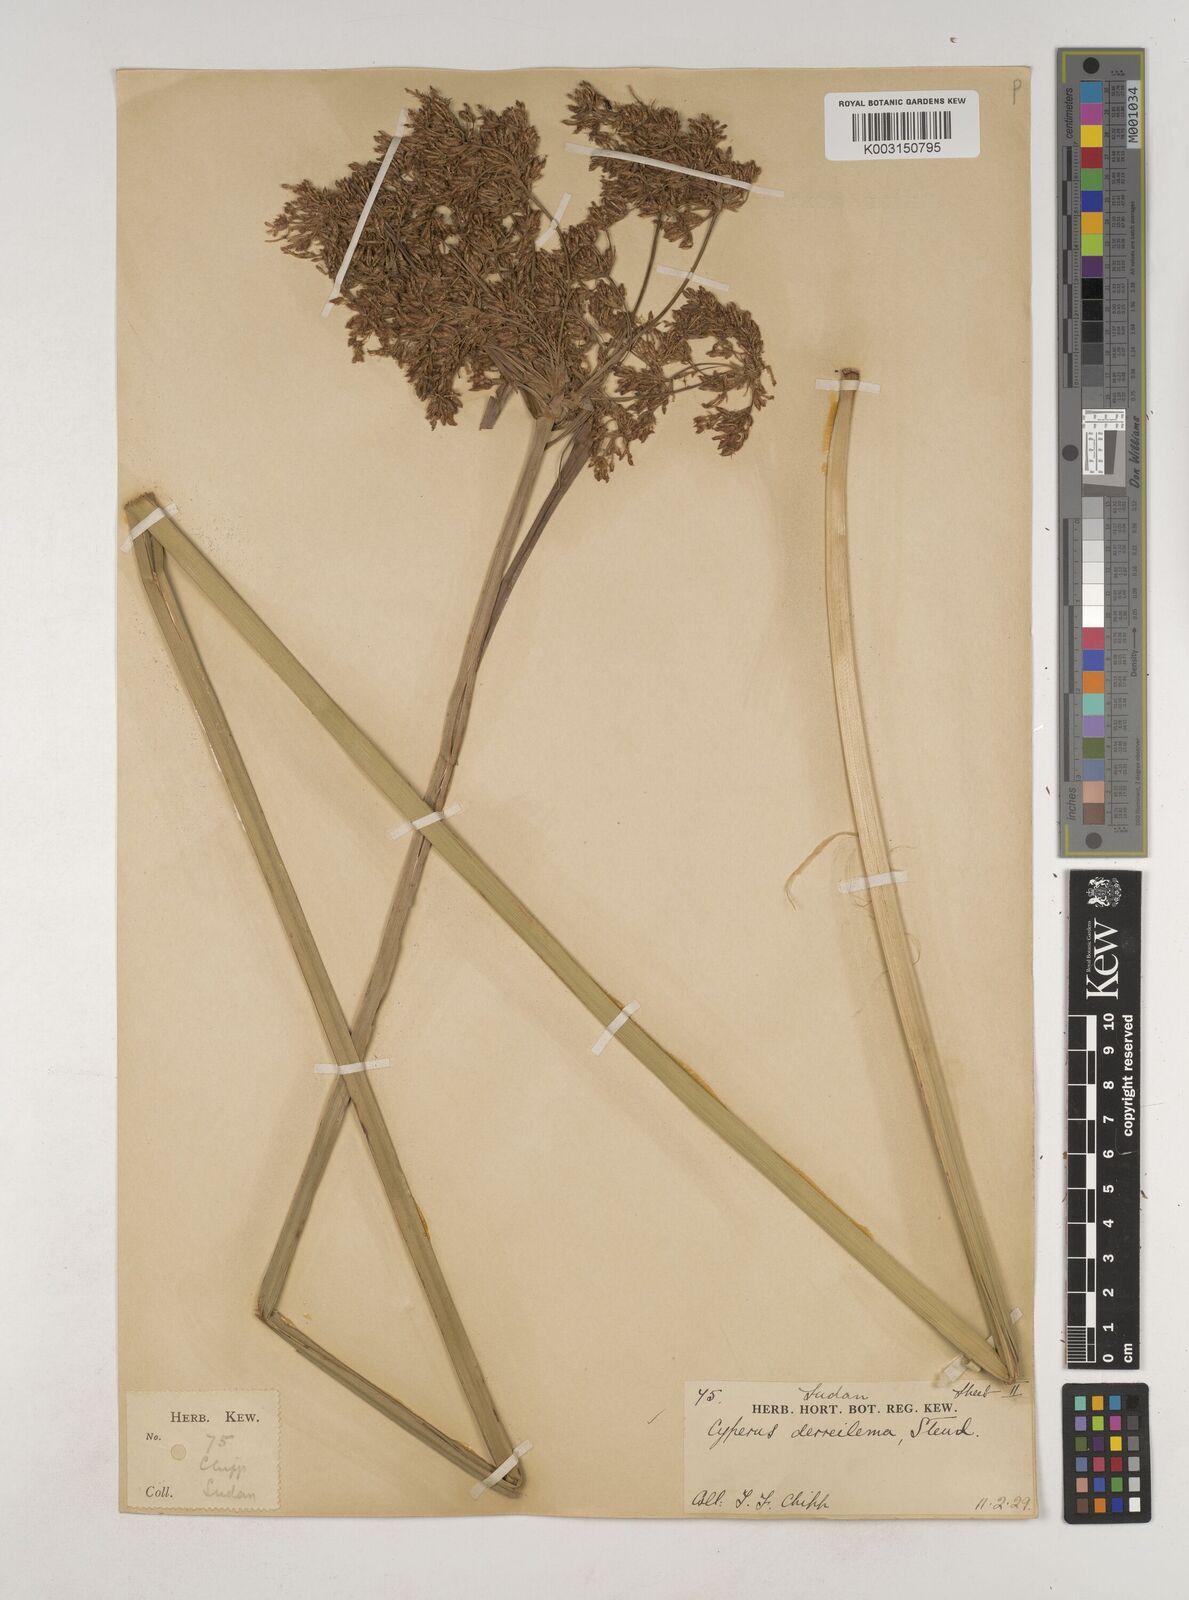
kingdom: Plantae
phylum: Tracheophyta
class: Liliopsida
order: Poales
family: Cyperaceae
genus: Cyperus
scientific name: Cyperus derreilema
